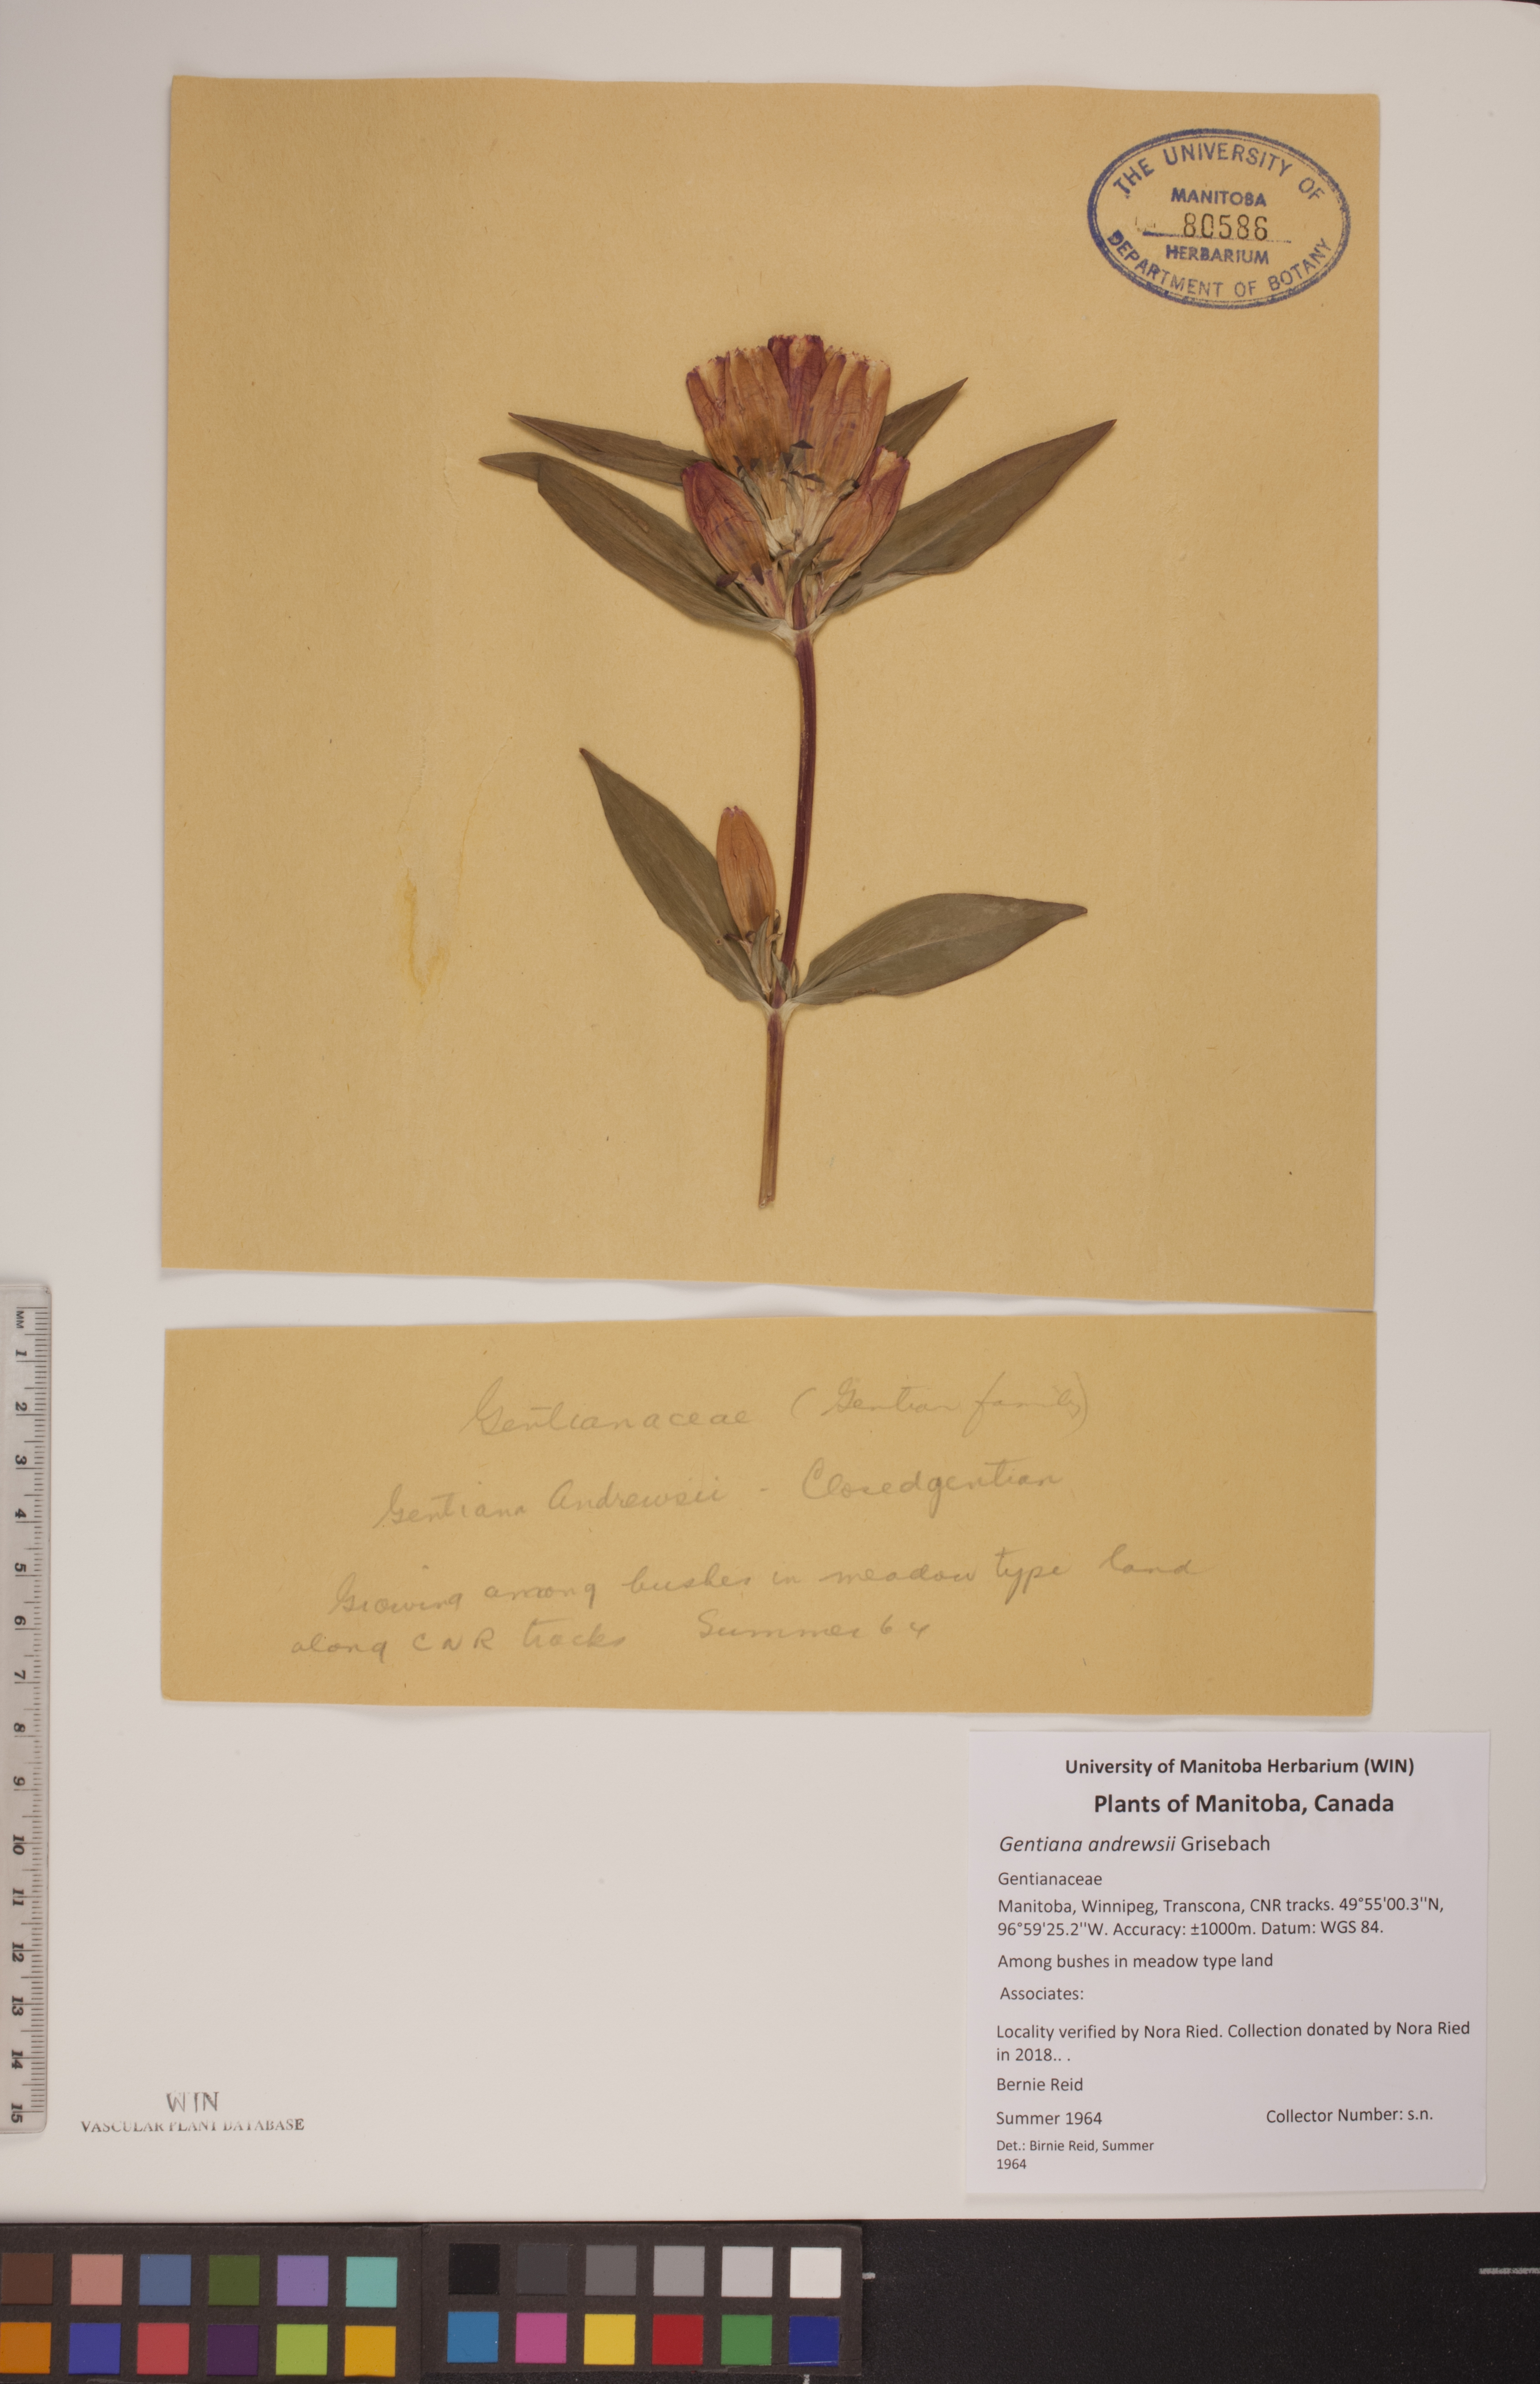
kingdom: Plantae
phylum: Tracheophyta
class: Magnoliopsida
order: Gentianales
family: Gentianaceae
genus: Gentiana
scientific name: Gentiana andrewsii
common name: Bottle gentian
